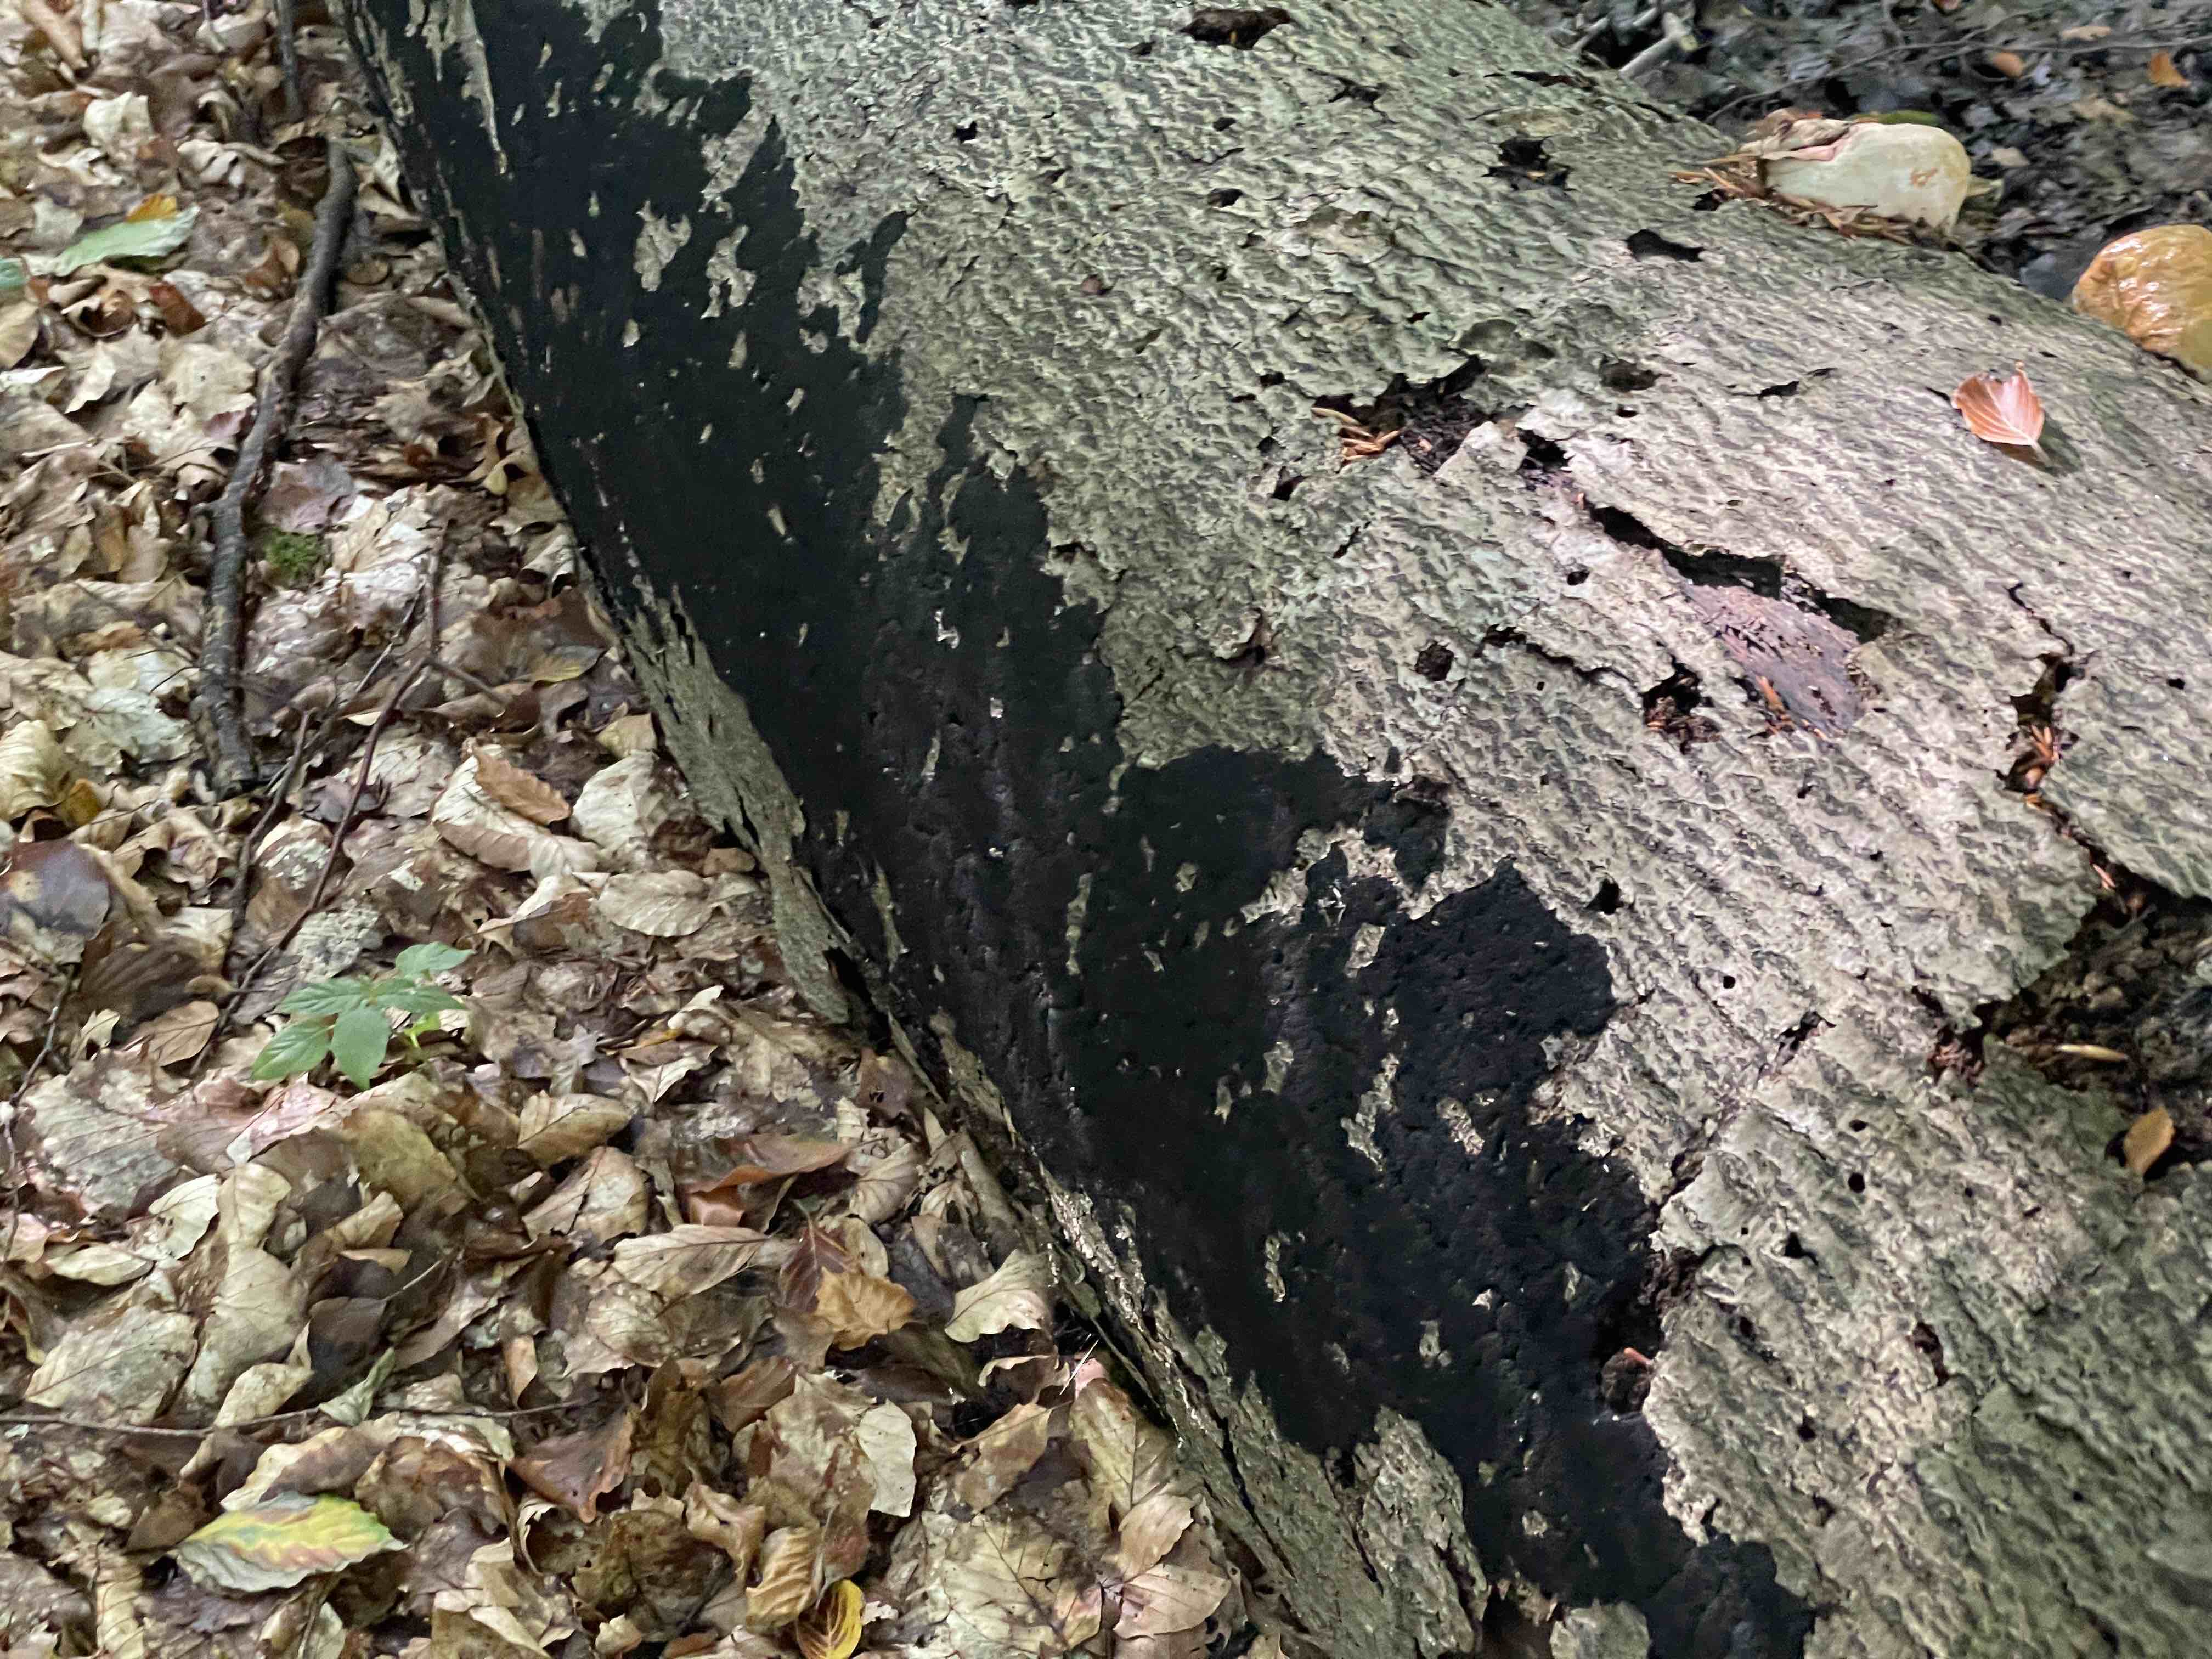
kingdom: Fungi
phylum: Ascomycota
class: Sordariomycetes
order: Xylariales
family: Diatrypaceae
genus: Eutypa
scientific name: Eutypa spinosa
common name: grov kulskorpe
